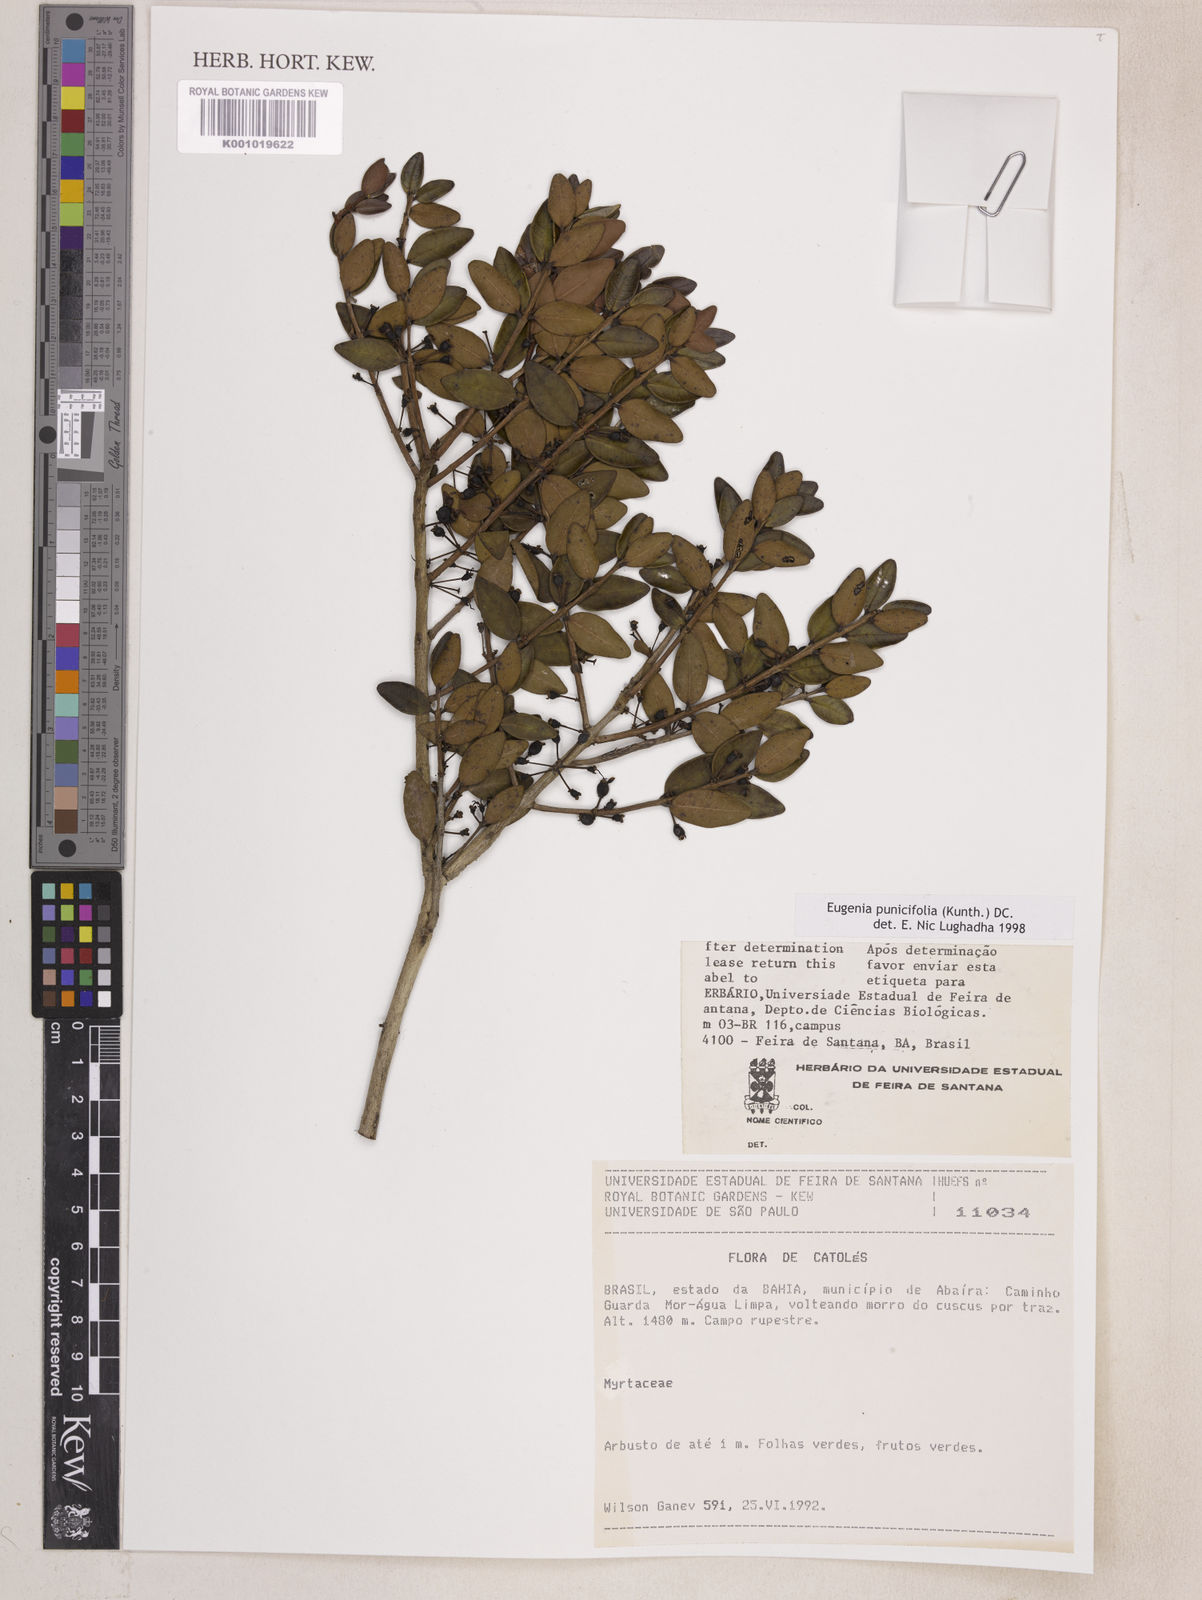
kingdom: Plantae
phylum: Tracheophyta
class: Magnoliopsida
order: Myrtales
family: Myrtaceae
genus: Eugenia
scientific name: Eugenia punicifolia
